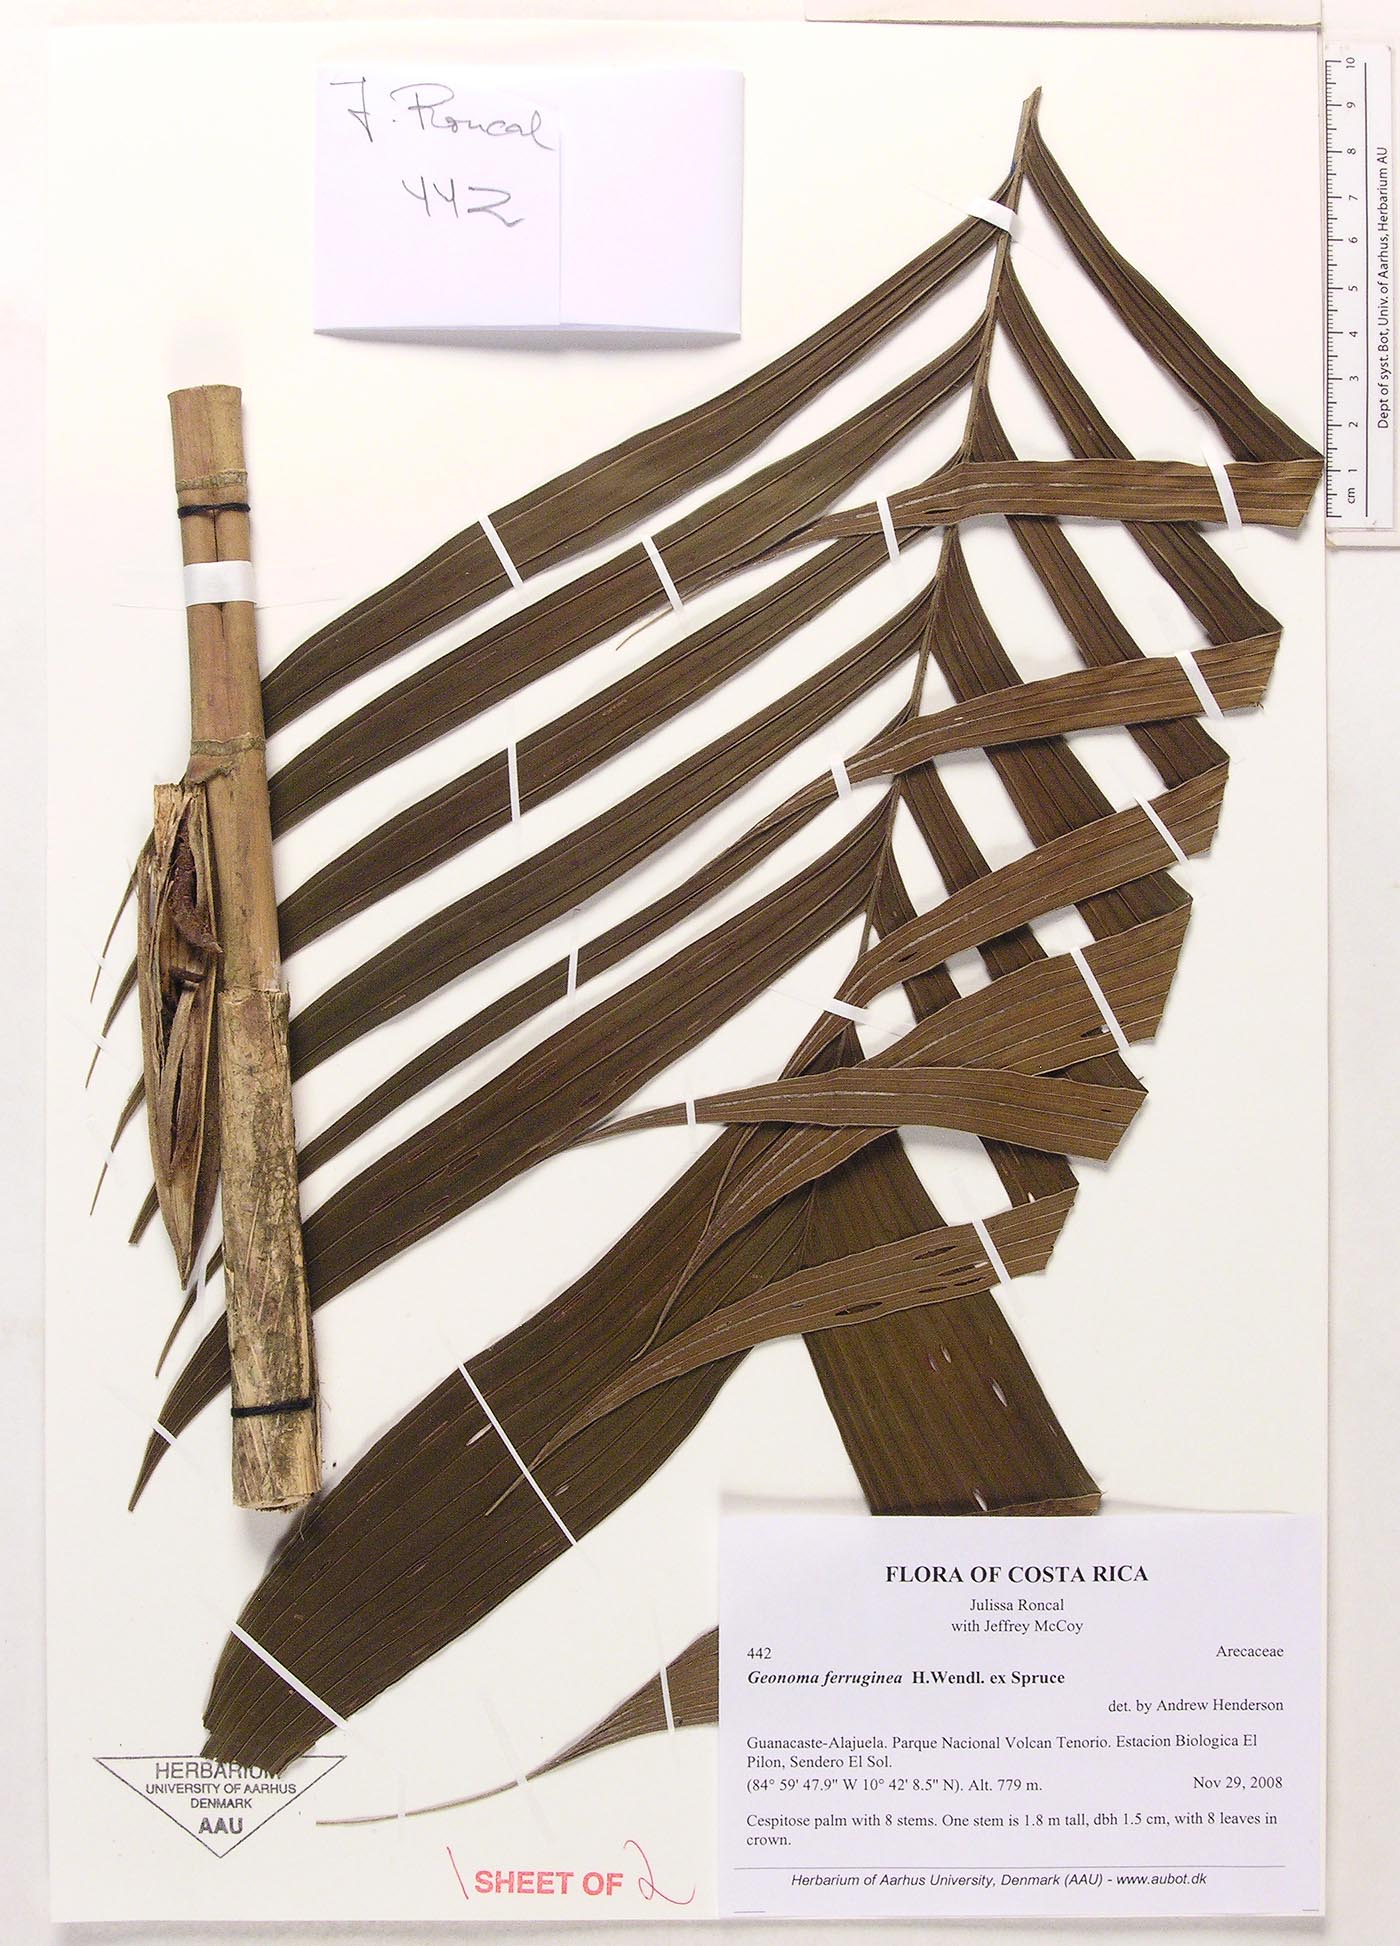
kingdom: Plantae
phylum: Tracheophyta
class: Liliopsida
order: Arecales
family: Arecaceae
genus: Geonoma
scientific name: Geonoma ferruginea
